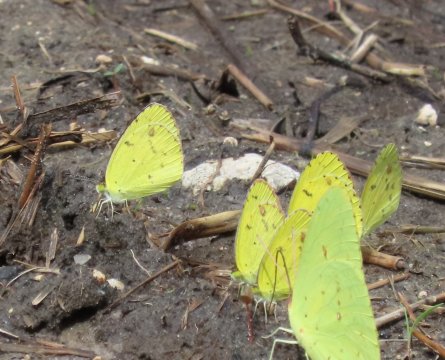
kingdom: Animalia
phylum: Arthropoda
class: Insecta
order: Lepidoptera
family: Pieridae
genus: Pyrisitia
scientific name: Pyrisitia lisa
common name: Little Yellow
